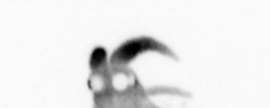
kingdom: Animalia
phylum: Annelida
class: Polychaeta
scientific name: Polychaeta
